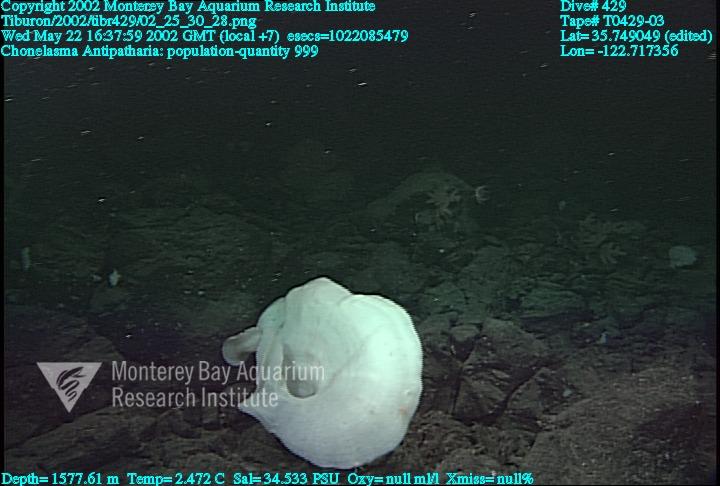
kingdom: Animalia
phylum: Porifera
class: Hexactinellida
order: Sceptrulophora
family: Euretidae
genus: Chonelasma
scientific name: Chonelasma
